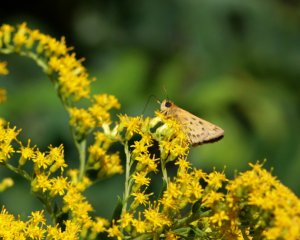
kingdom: Animalia
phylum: Arthropoda
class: Insecta
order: Lepidoptera
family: Hesperiidae
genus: Hylephila
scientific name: Hylephila phyleus
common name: Fiery Skipper
